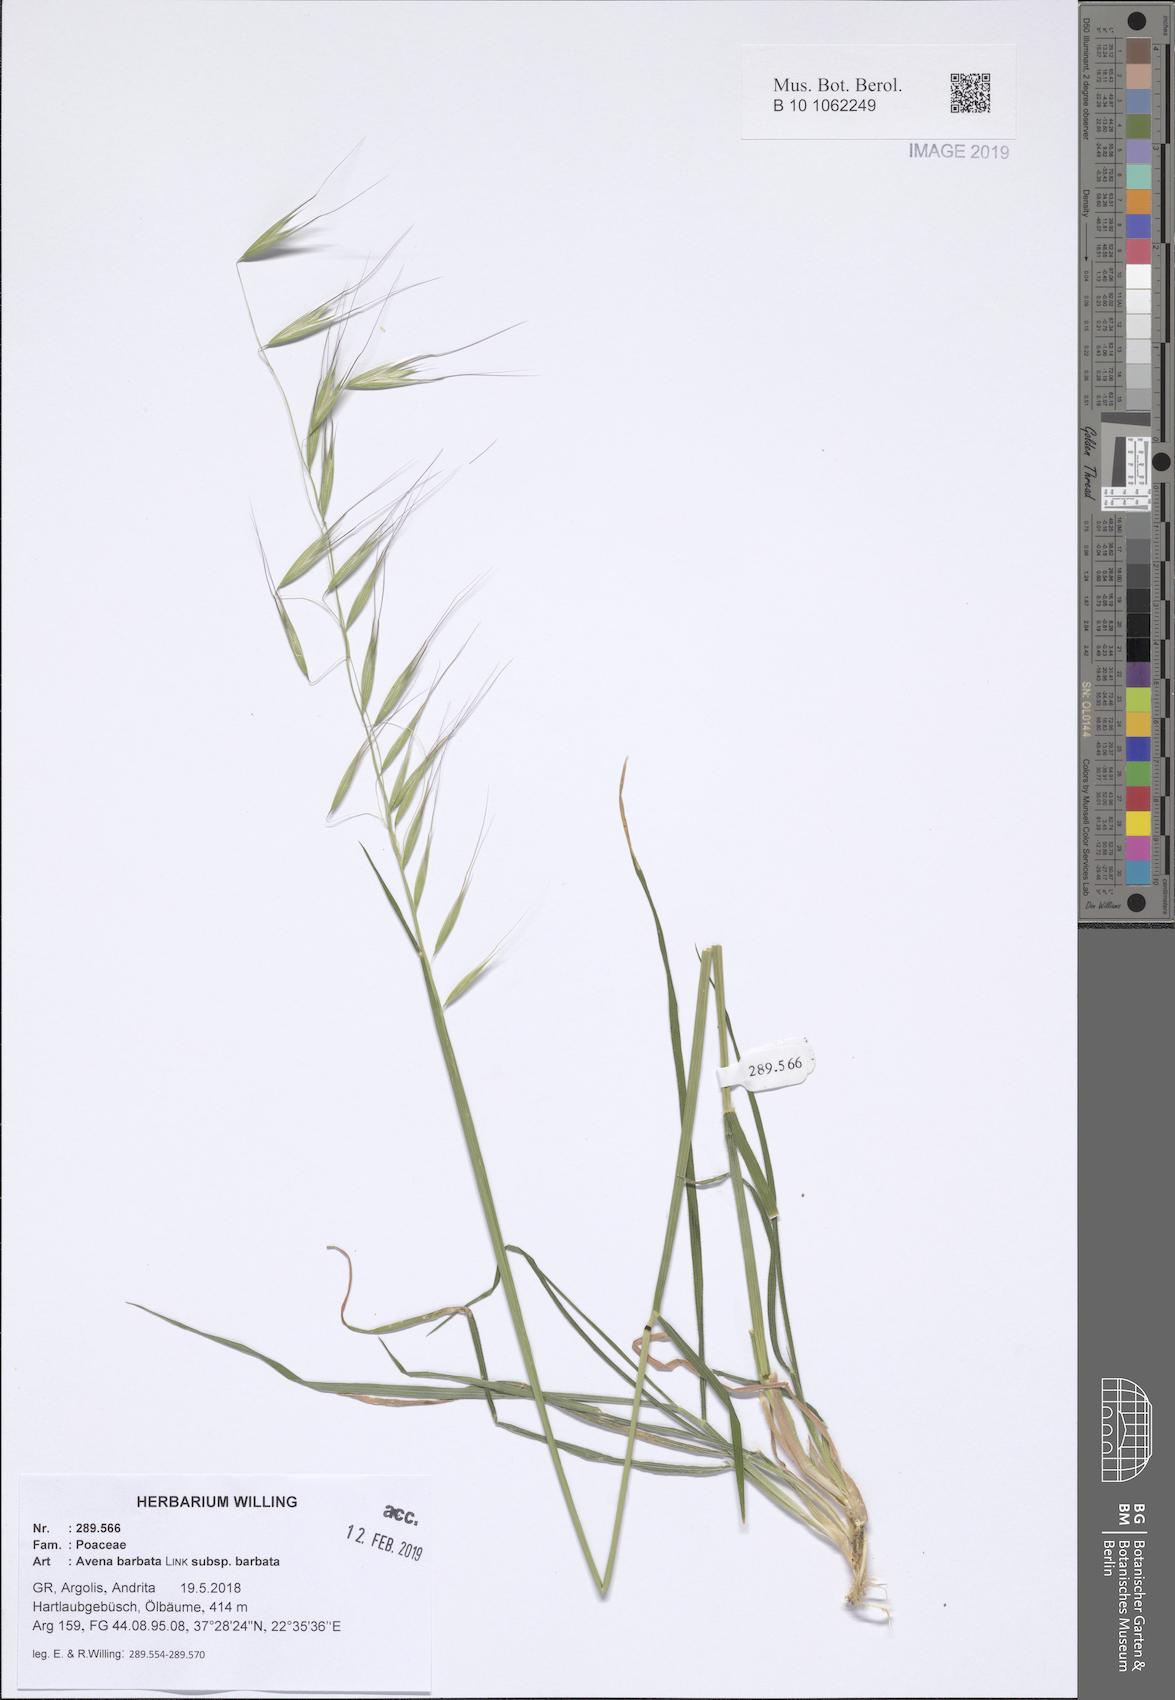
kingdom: Plantae
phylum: Tracheophyta
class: Liliopsida
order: Poales
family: Poaceae
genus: Avena
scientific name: Avena barbata
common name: Slender oat
